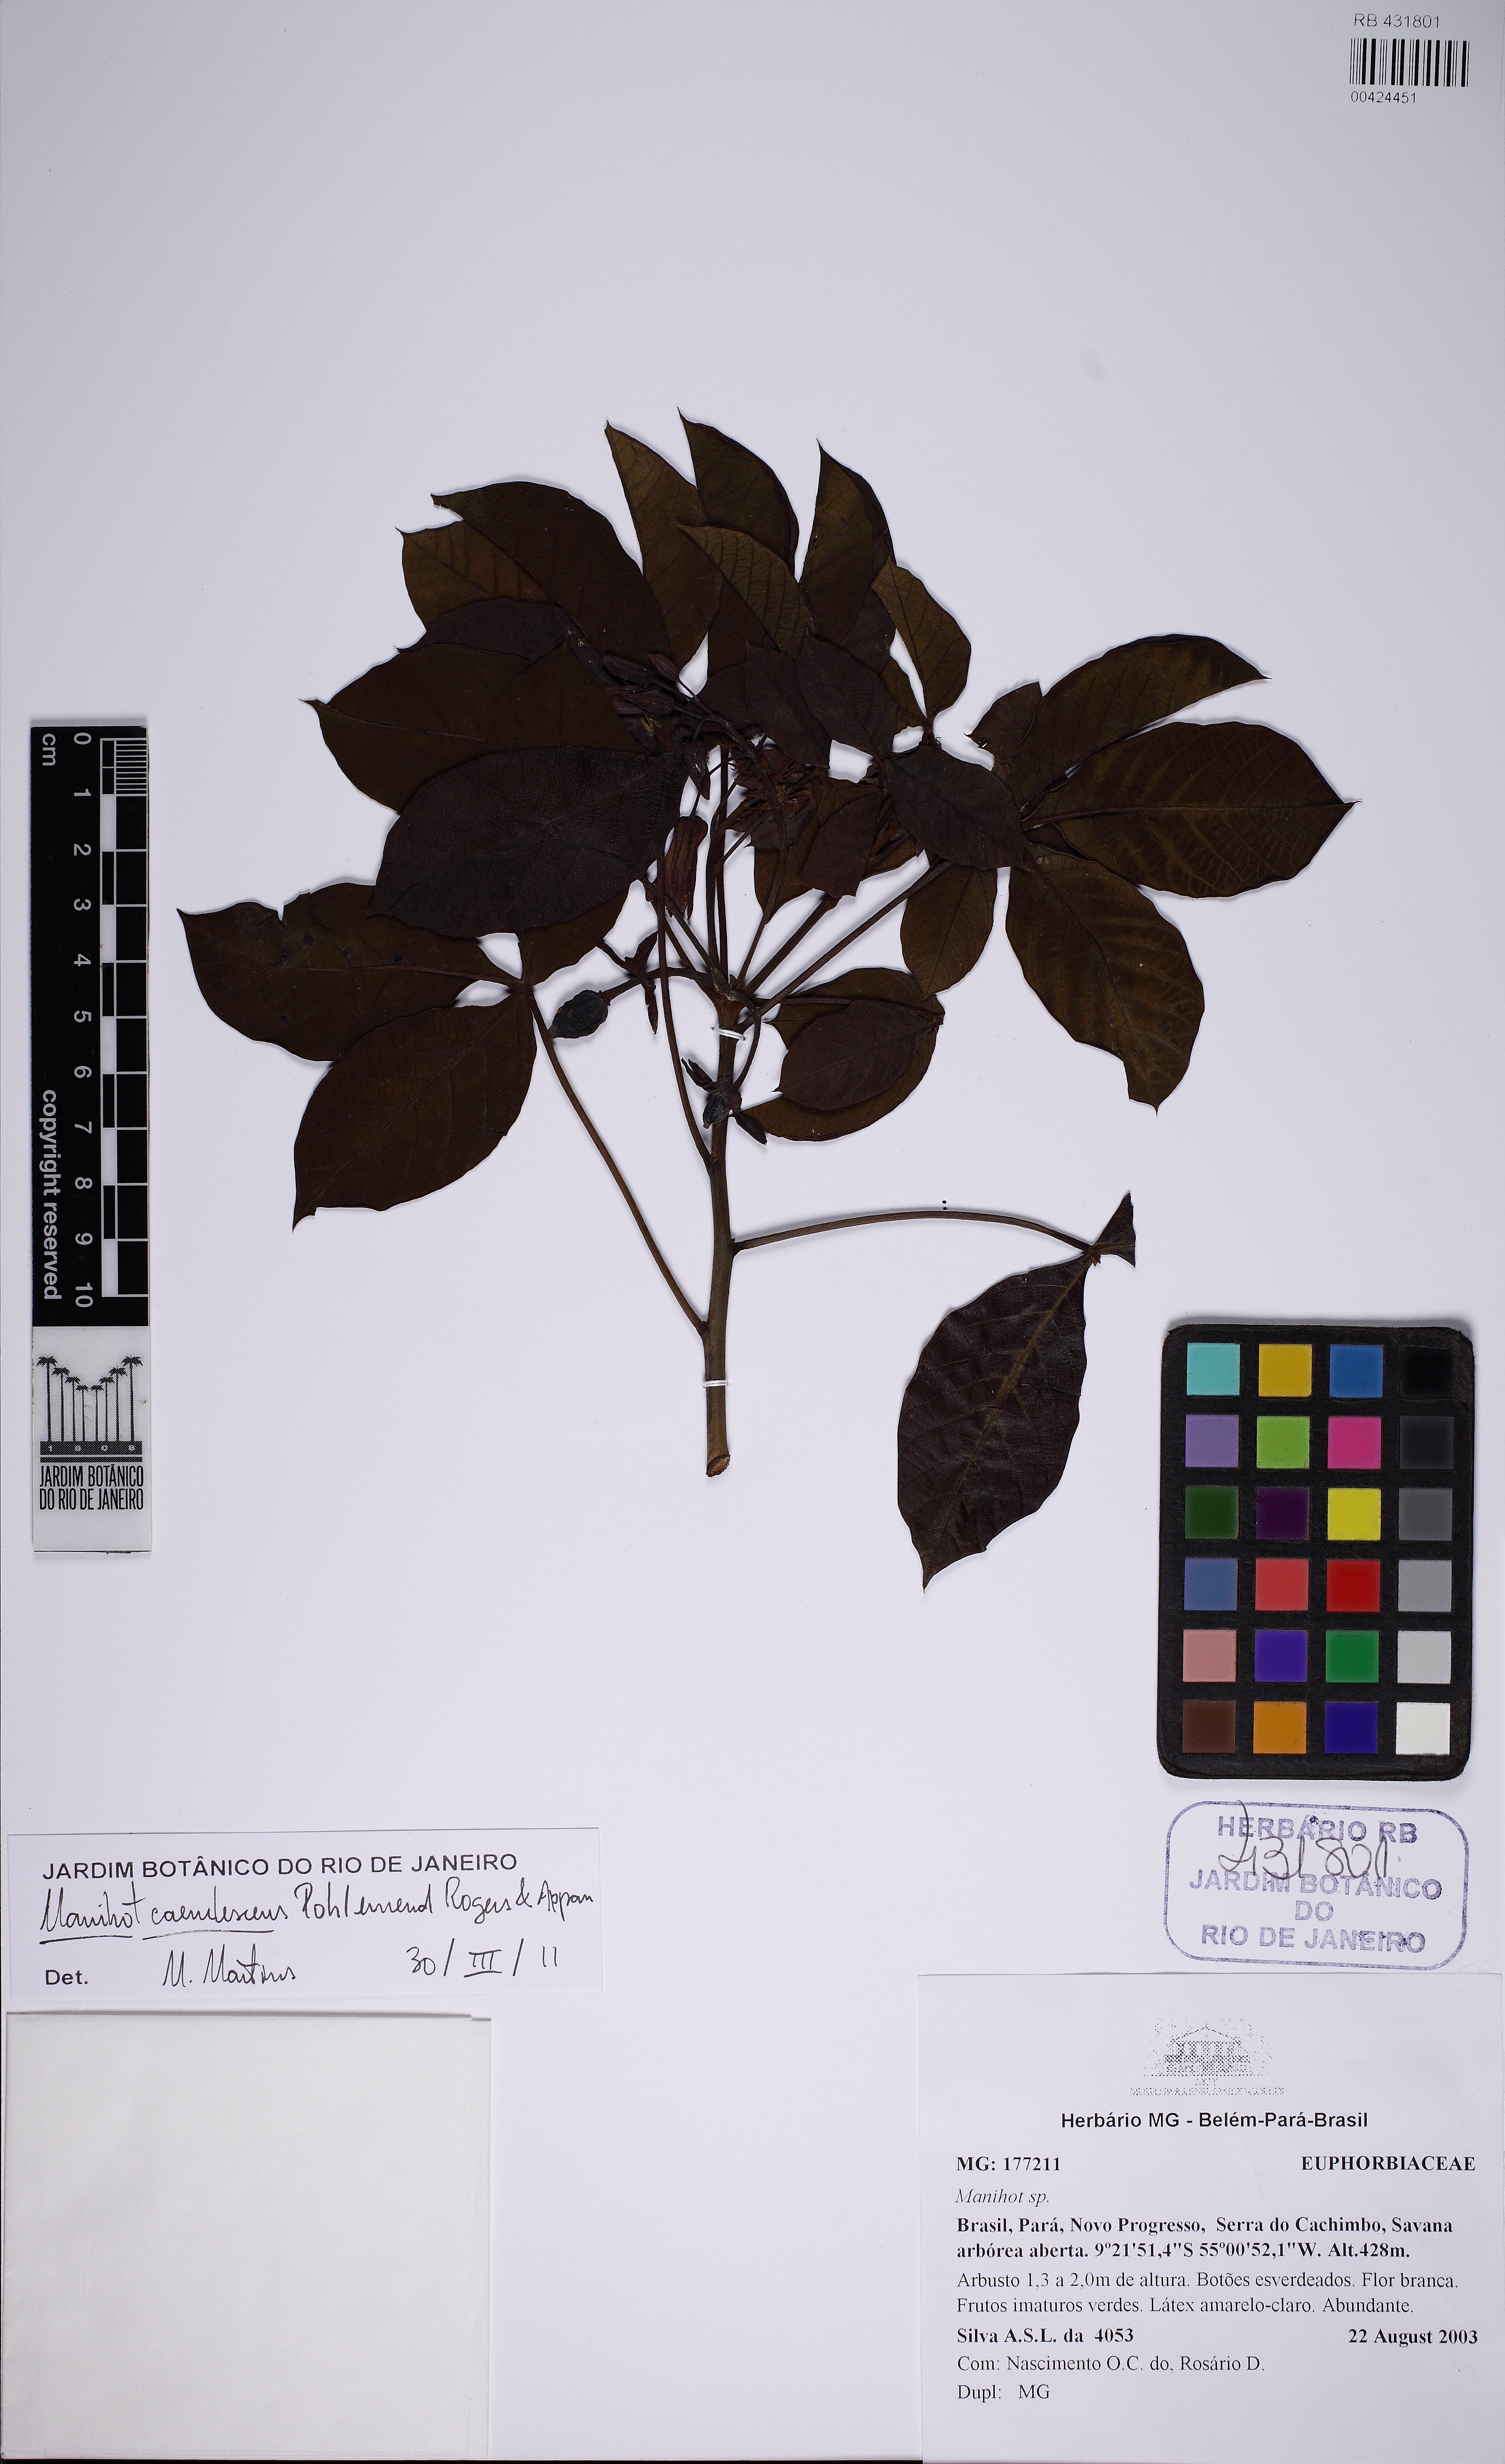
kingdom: Plantae
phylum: Tracheophyta
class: Magnoliopsida
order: Malpighiales
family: Euphorbiaceae
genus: Manihot
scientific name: Manihot caerulescens
